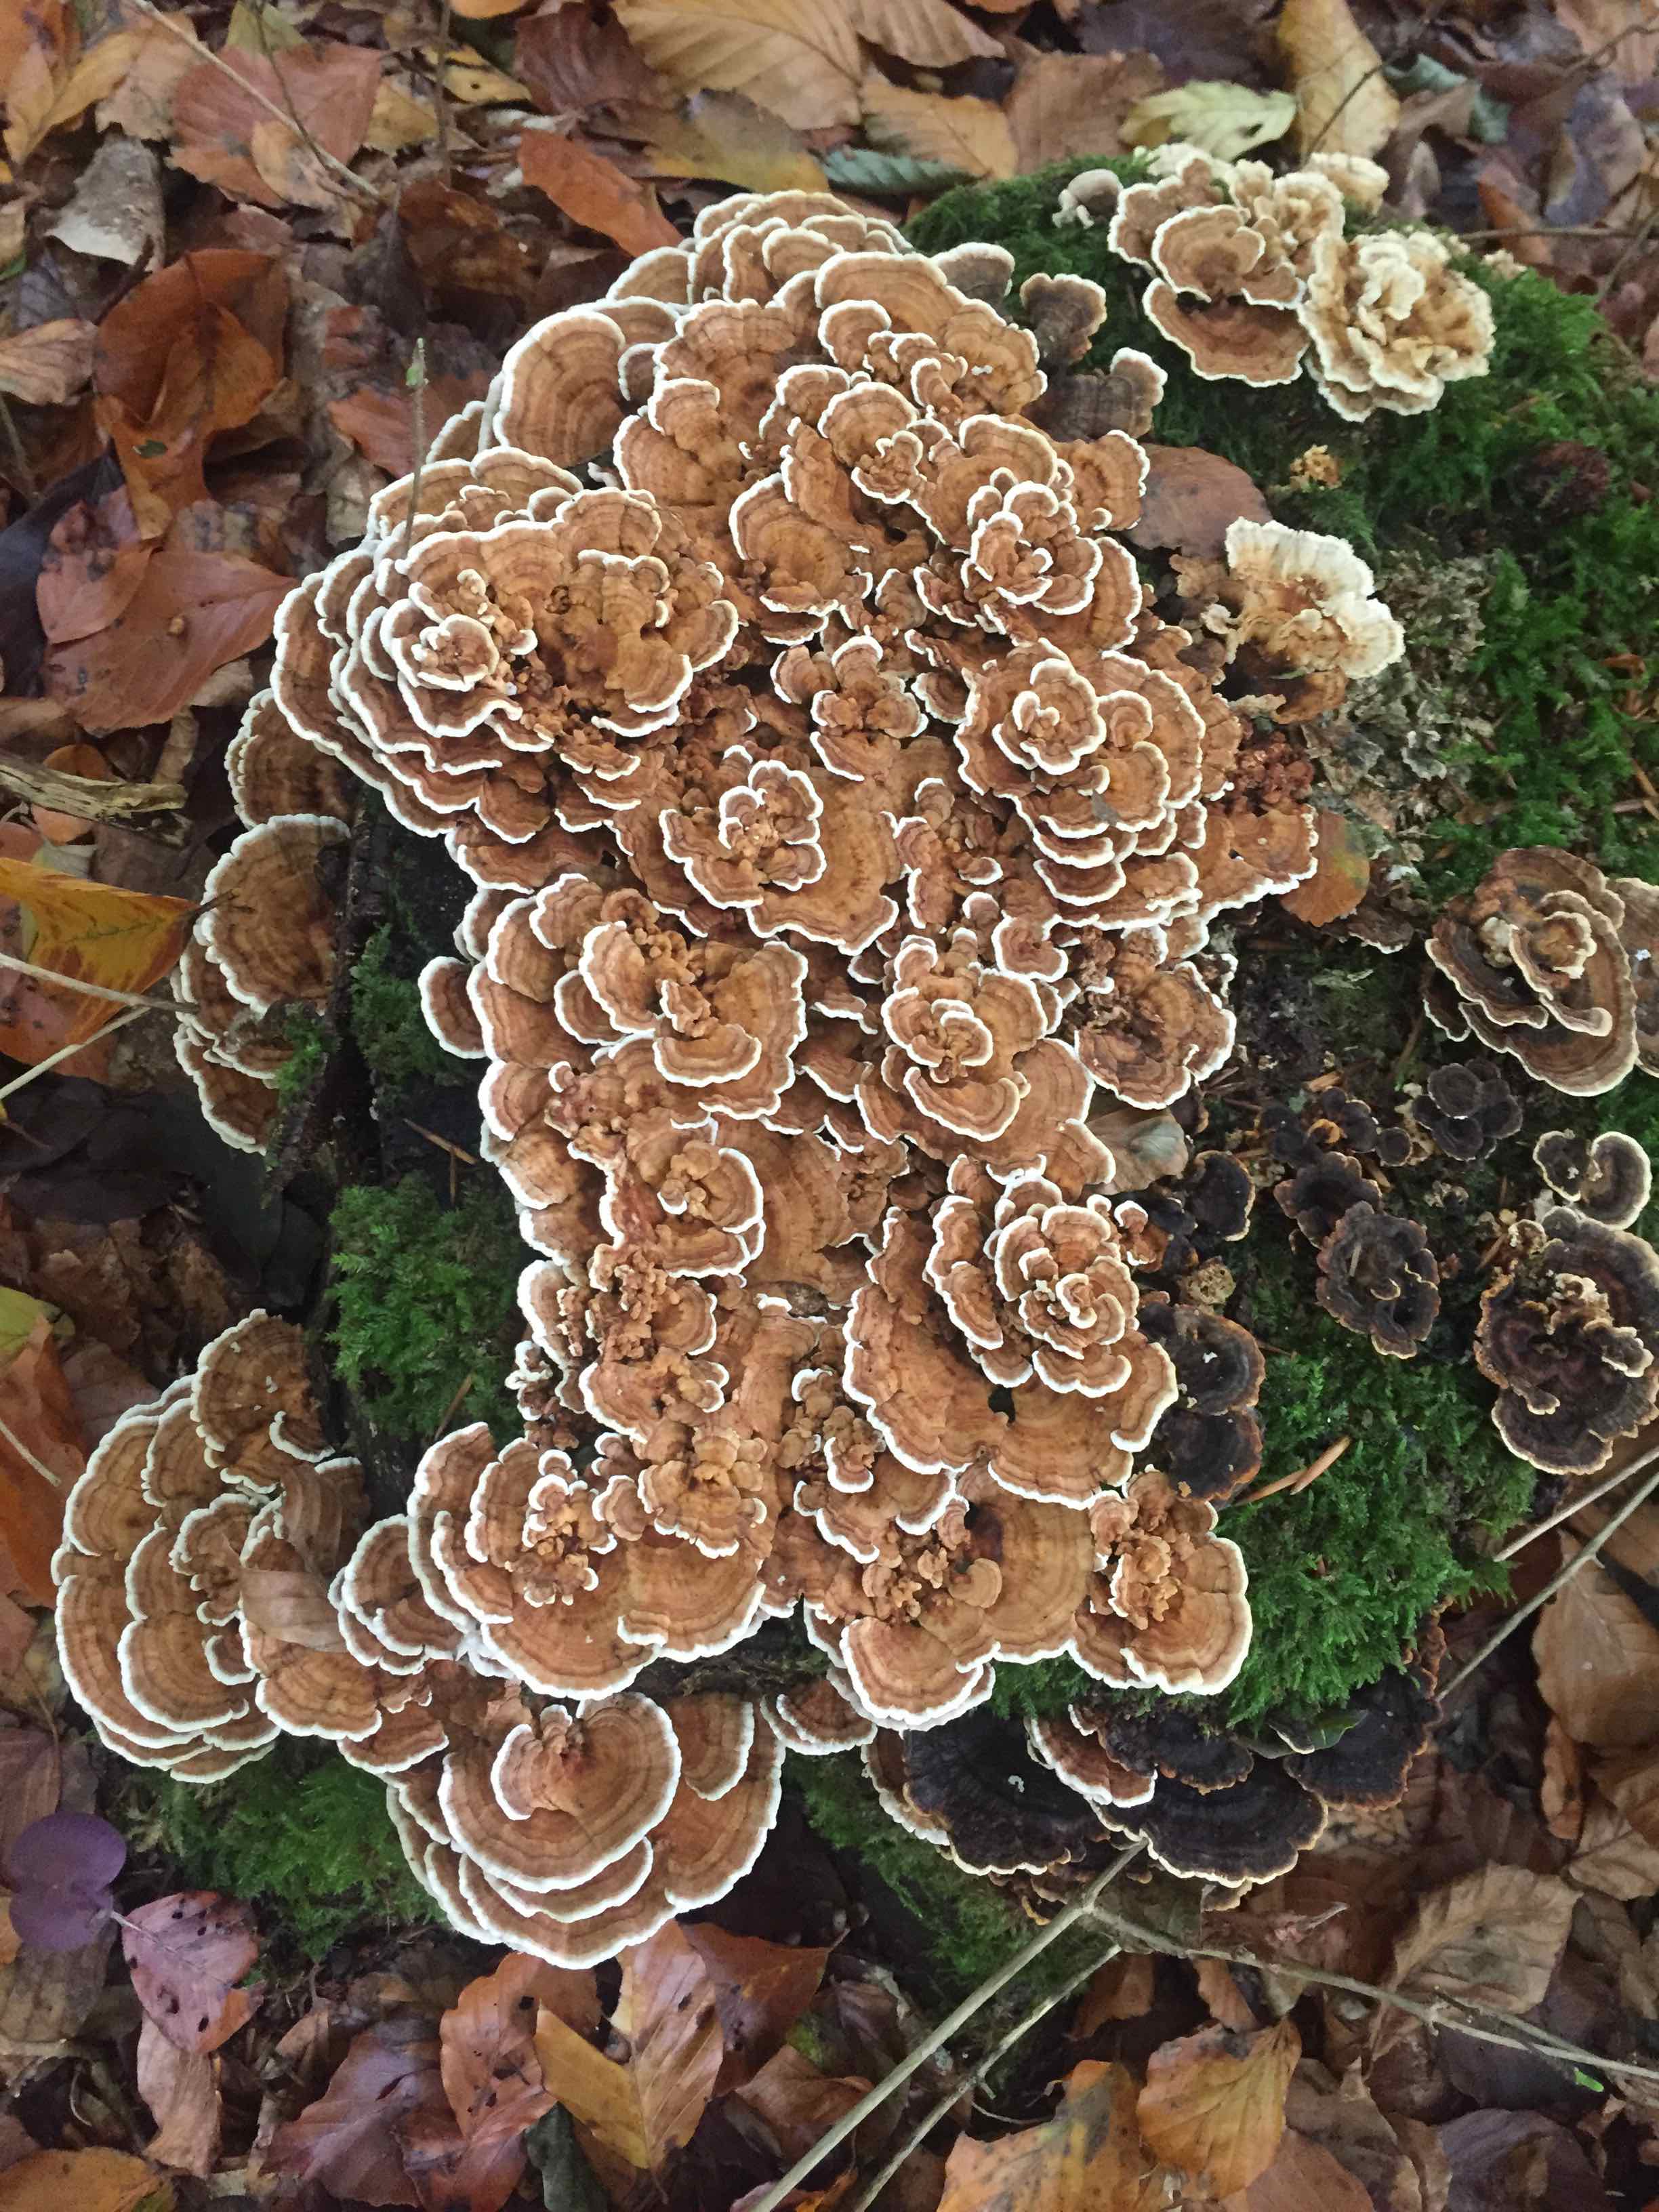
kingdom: Fungi
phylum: Basidiomycota
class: Agaricomycetes
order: Polyporales
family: Polyporaceae
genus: Trametes
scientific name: Trametes versicolor
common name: broget læderporesvamp
